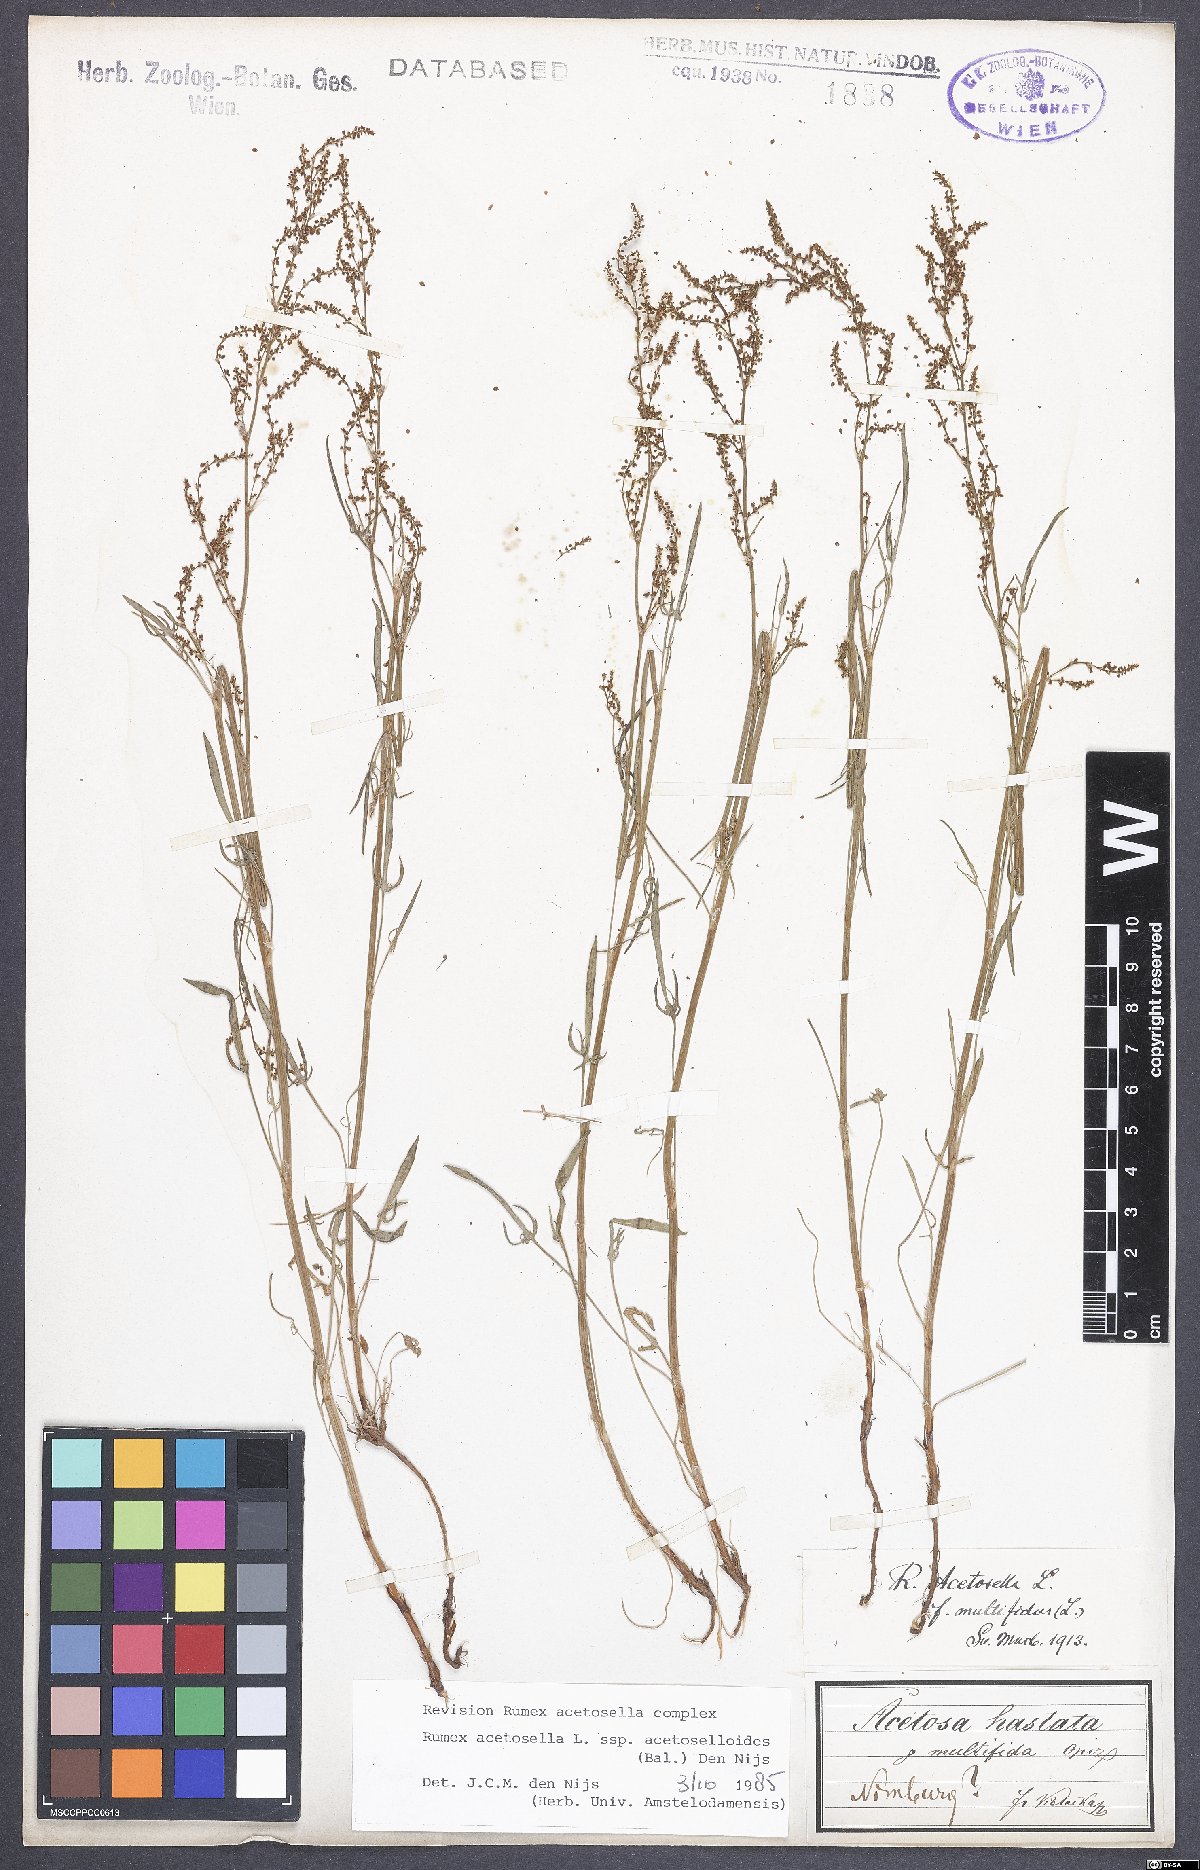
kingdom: Plantae
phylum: Tracheophyta
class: Magnoliopsida
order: Caryophyllales
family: Polygonaceae
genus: Rumex
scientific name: Rumex acetosella
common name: Common sheep sorrel
